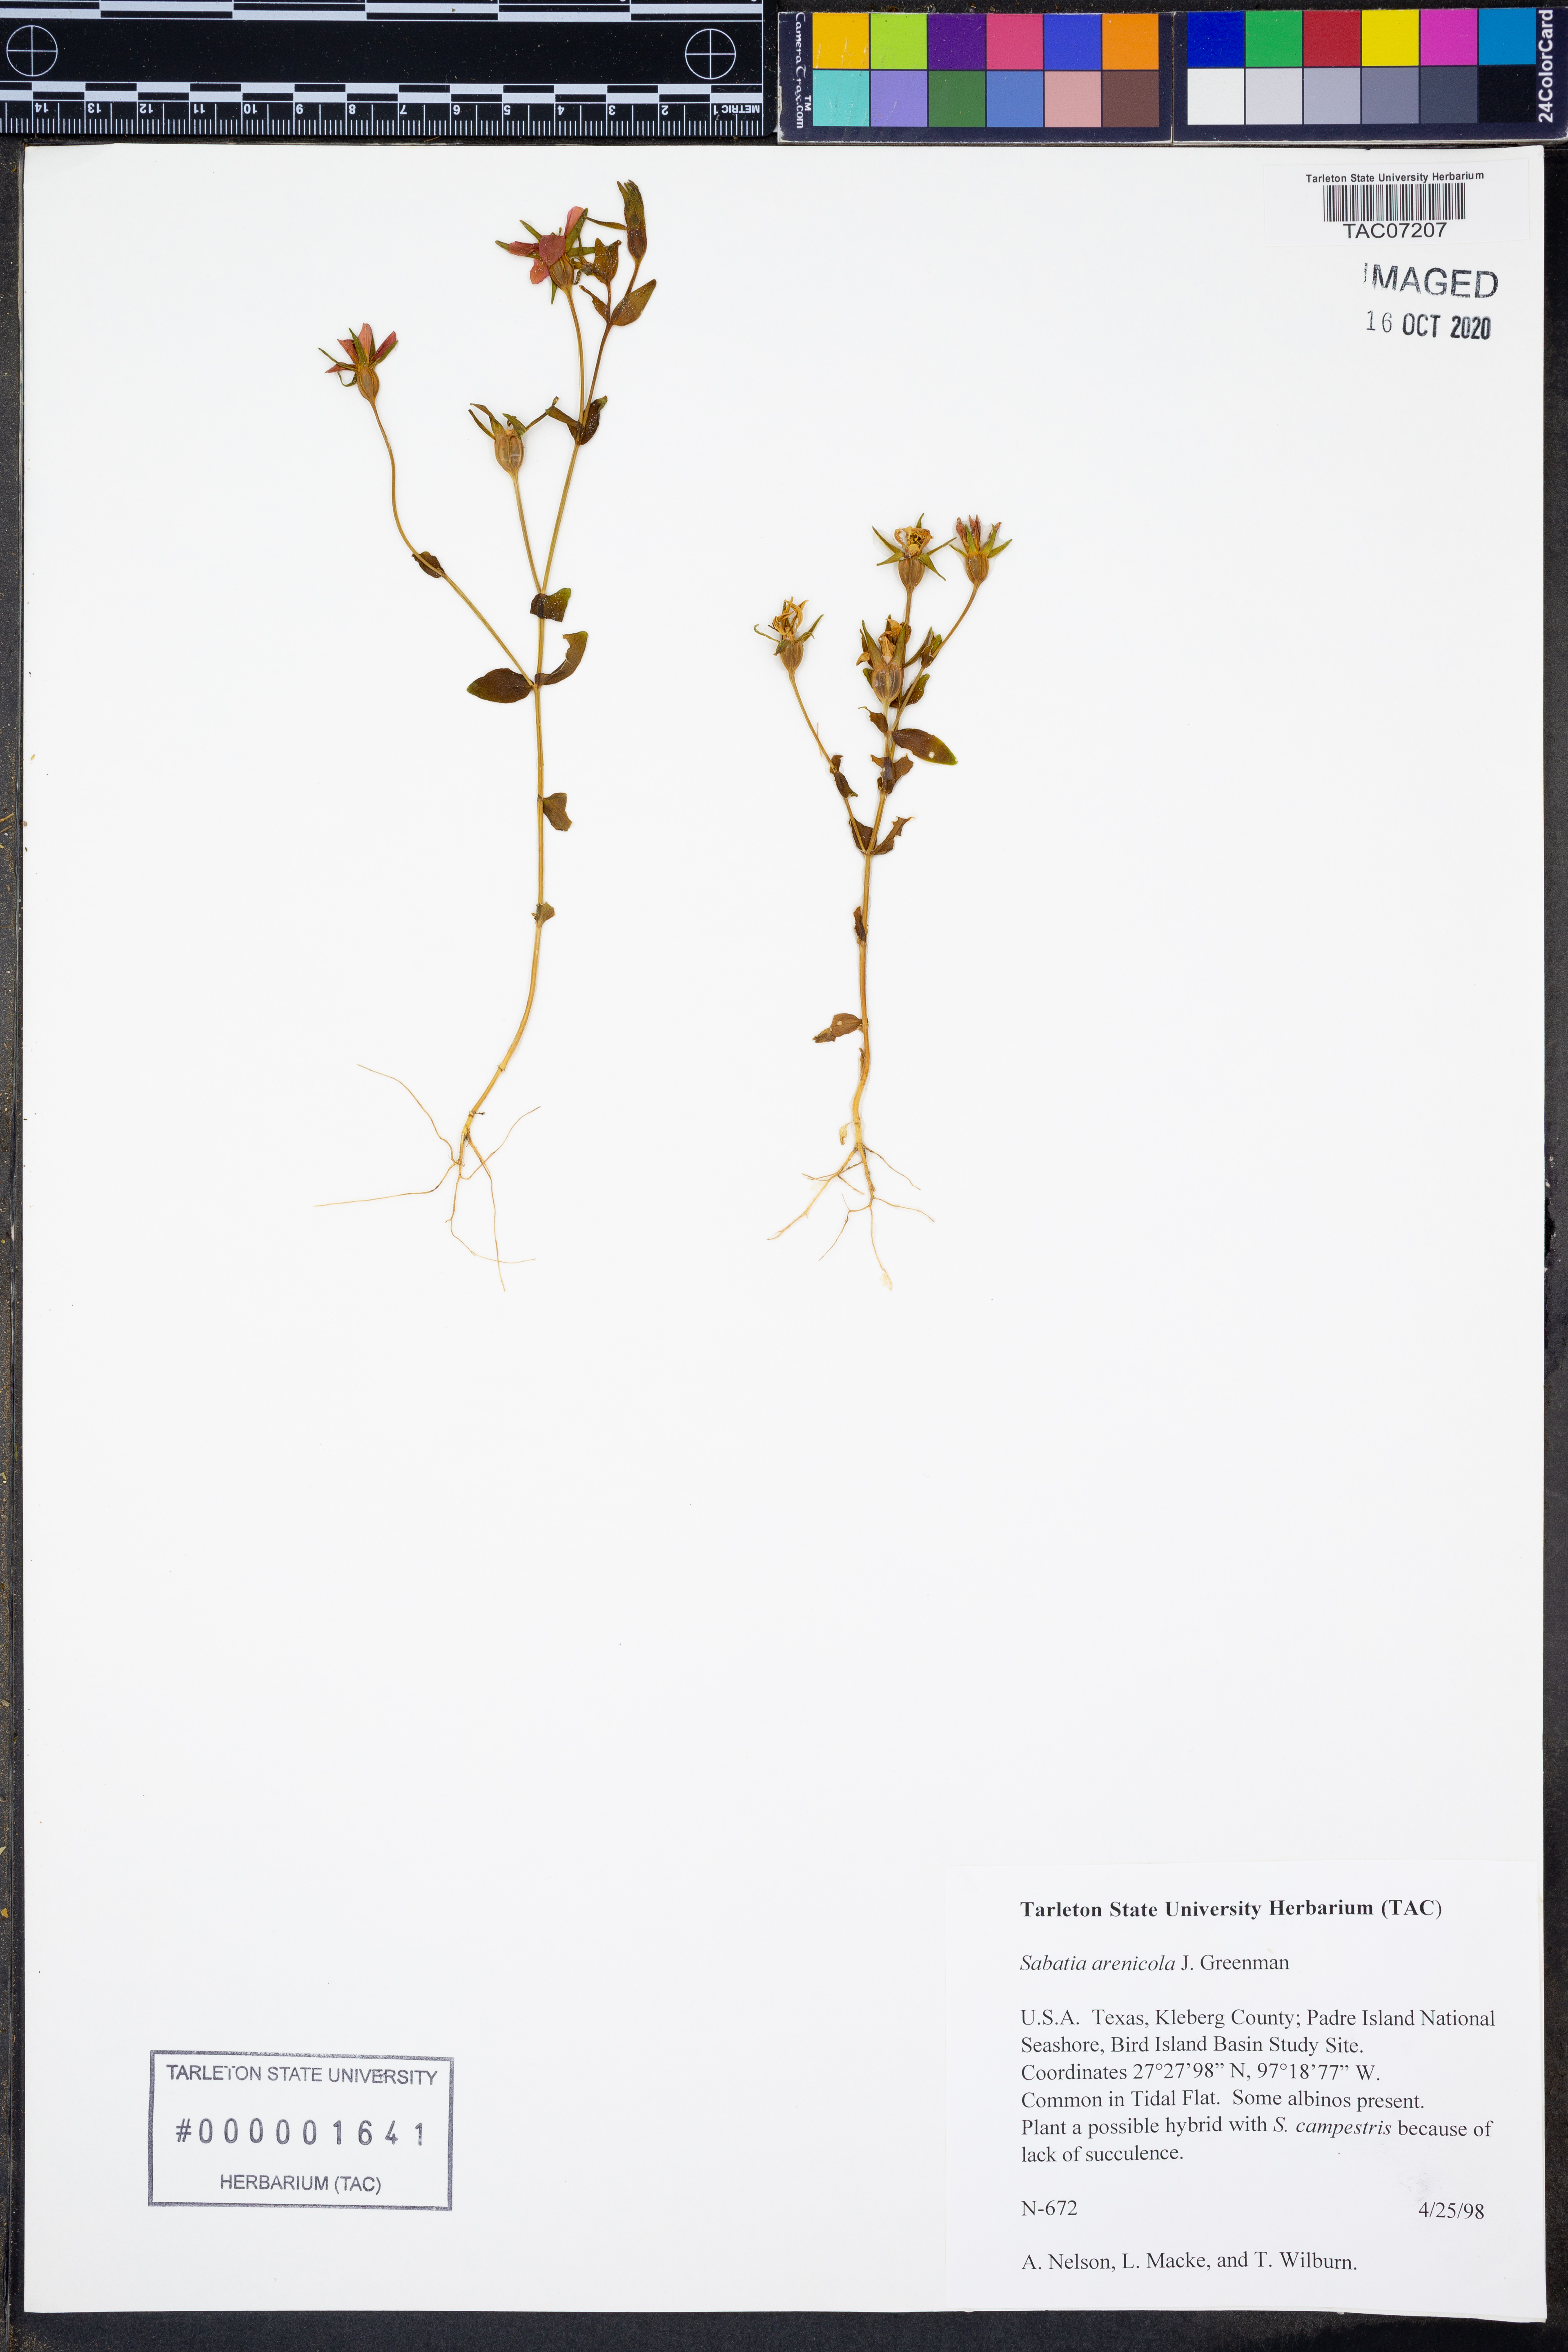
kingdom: Plantae
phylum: Tracheophyta
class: Magnoliopsida
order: Gentianales
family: Gentianaceae
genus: Sabatia
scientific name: Sabatia arenicola
